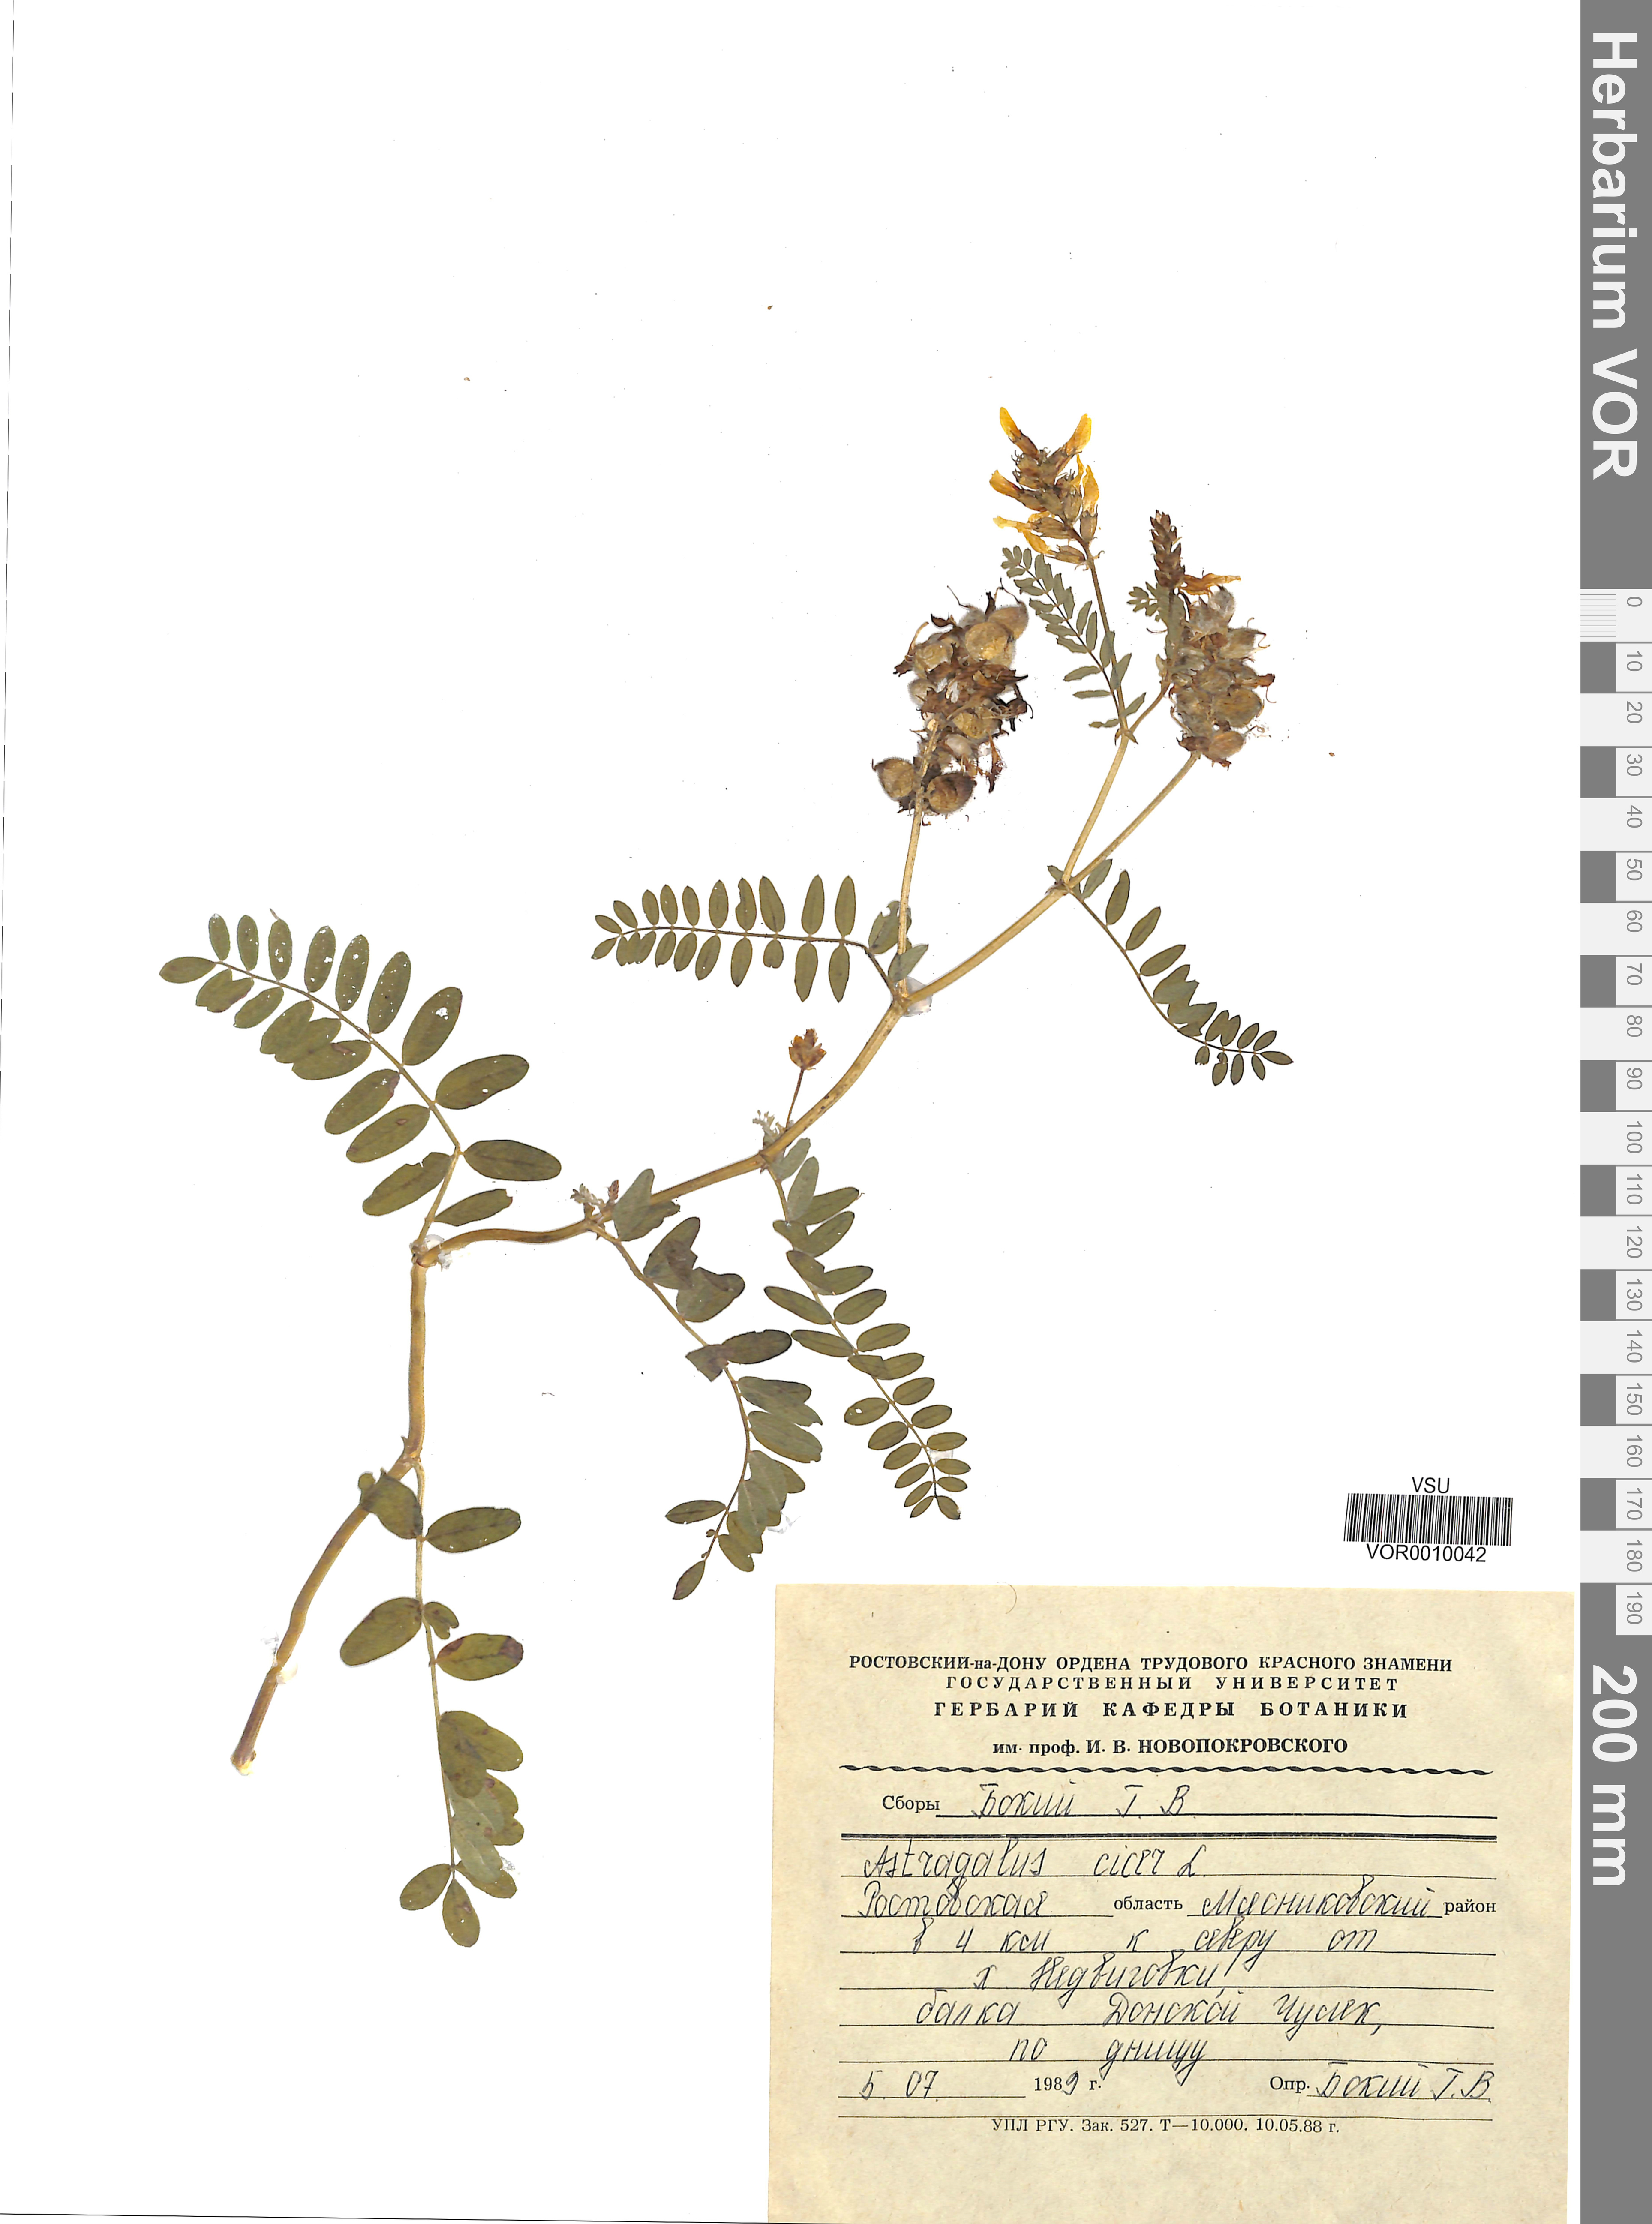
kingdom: Plantae
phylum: Tracheophyta
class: Magnoliopsida
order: Fabales
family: Fabaceae
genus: Astragalus
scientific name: Astragalus cicer
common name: Chick-pea milk-vetch
